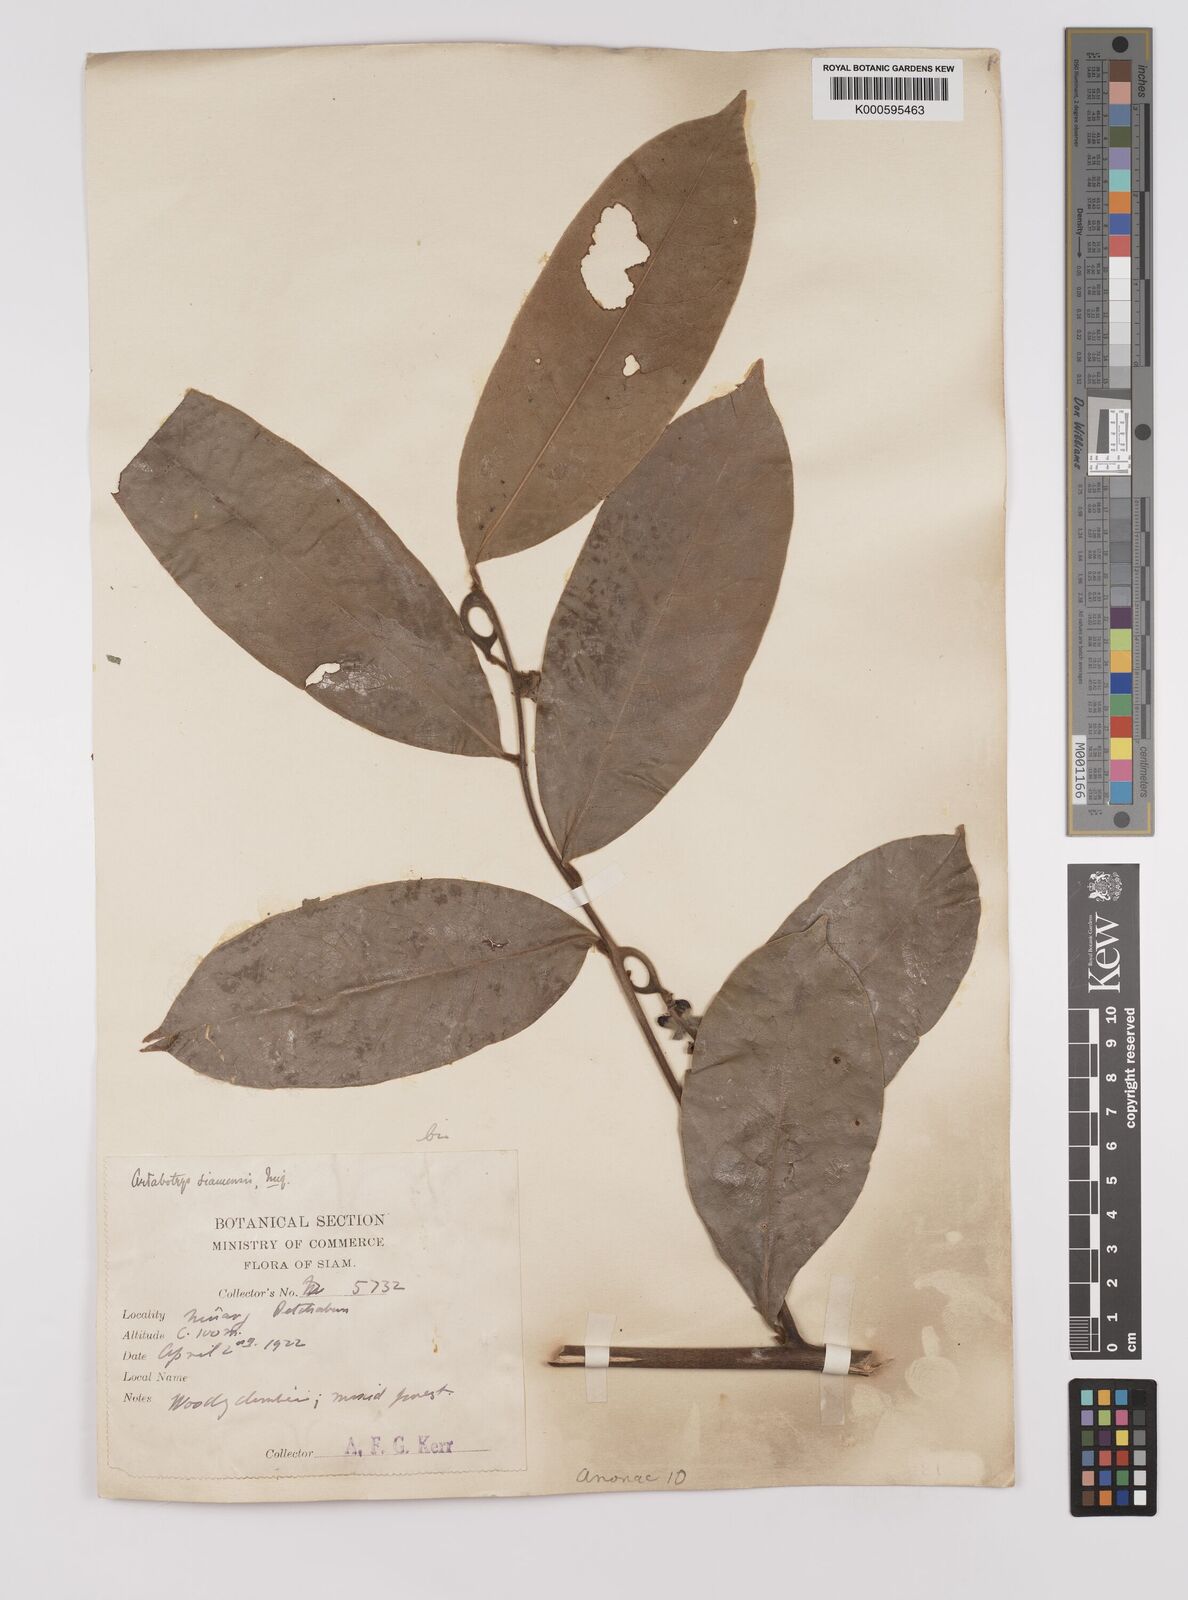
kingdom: Plantae
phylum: Tracheophyta
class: Magnoliopsida
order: Magnoliales
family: Annonaceae
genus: Artabotrys
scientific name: Artabotrys siamensis
